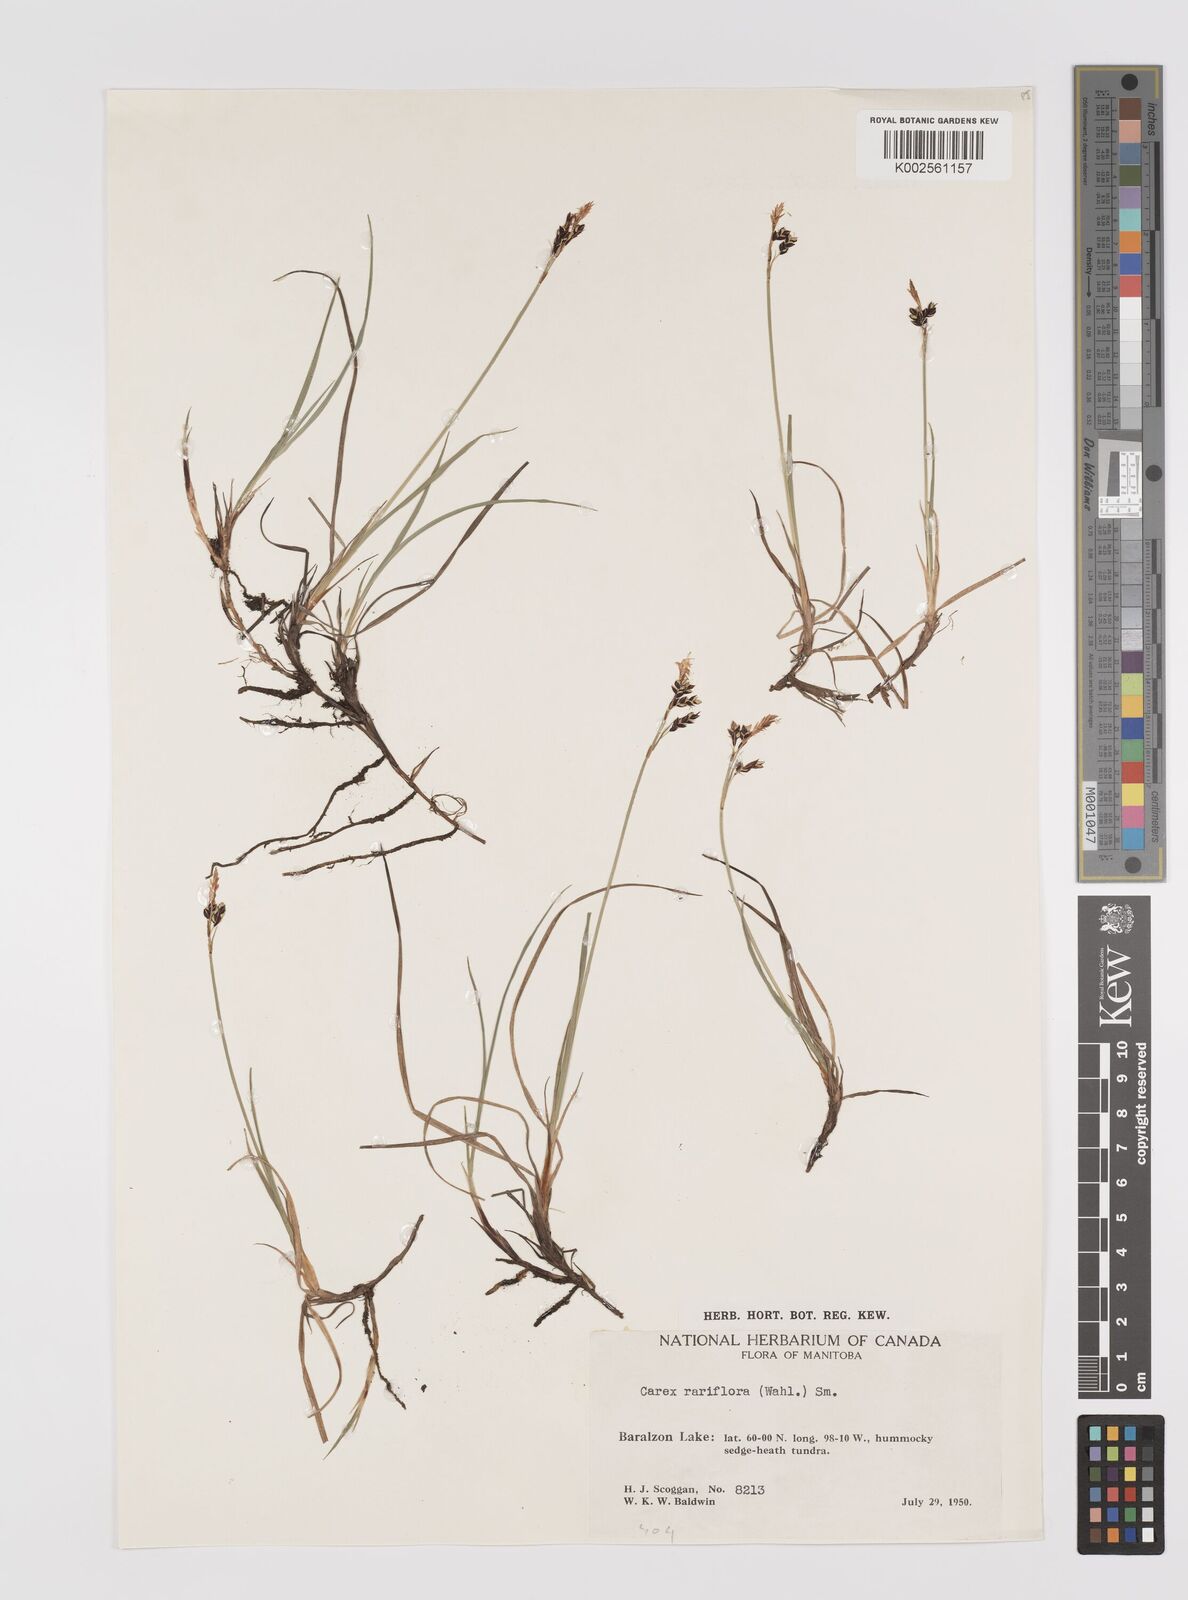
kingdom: Plantae
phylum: Tracheophyta
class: Liliopsida
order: Poales
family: Cyperaceae
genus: Carex
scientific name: Carex rariflora
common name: Loose-flowered alpine sedge
